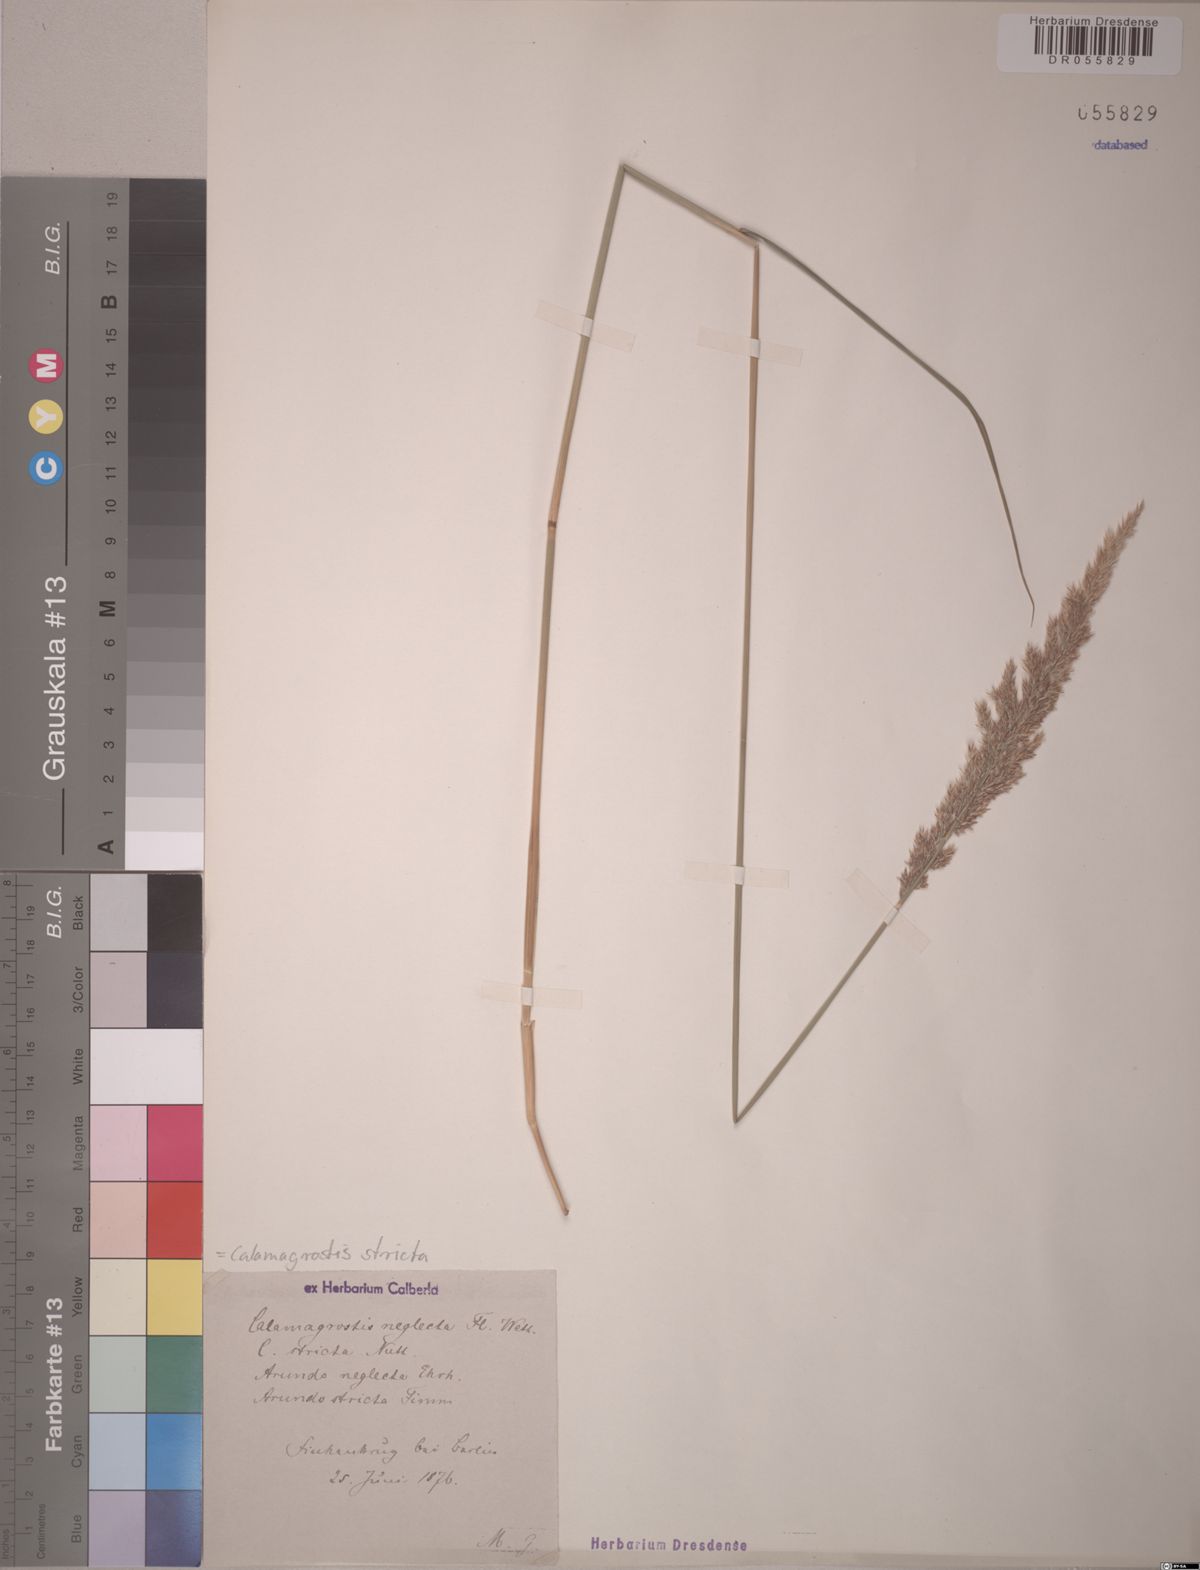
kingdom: Plantae
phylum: Tracheophyta
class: Liliopsida
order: Poales
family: Poaceae
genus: Calamagrostis
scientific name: Calamagrostis stricta
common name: Narrow small-reed
